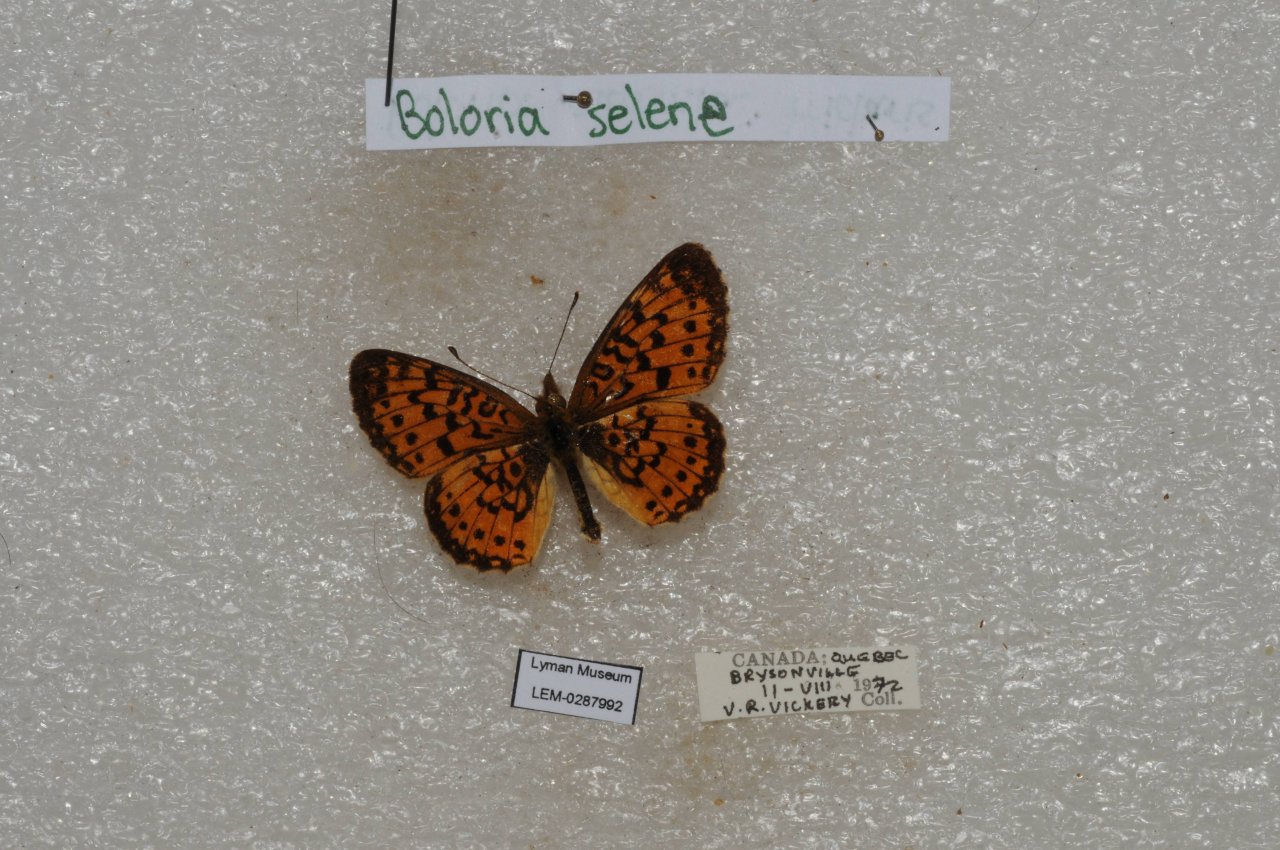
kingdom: Animalia
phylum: Arthropoda
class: Insecta
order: Lepidoptera
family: Nymphalidae
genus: Boloria
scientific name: Boloria selene
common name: Silver-bordered Fritillary
